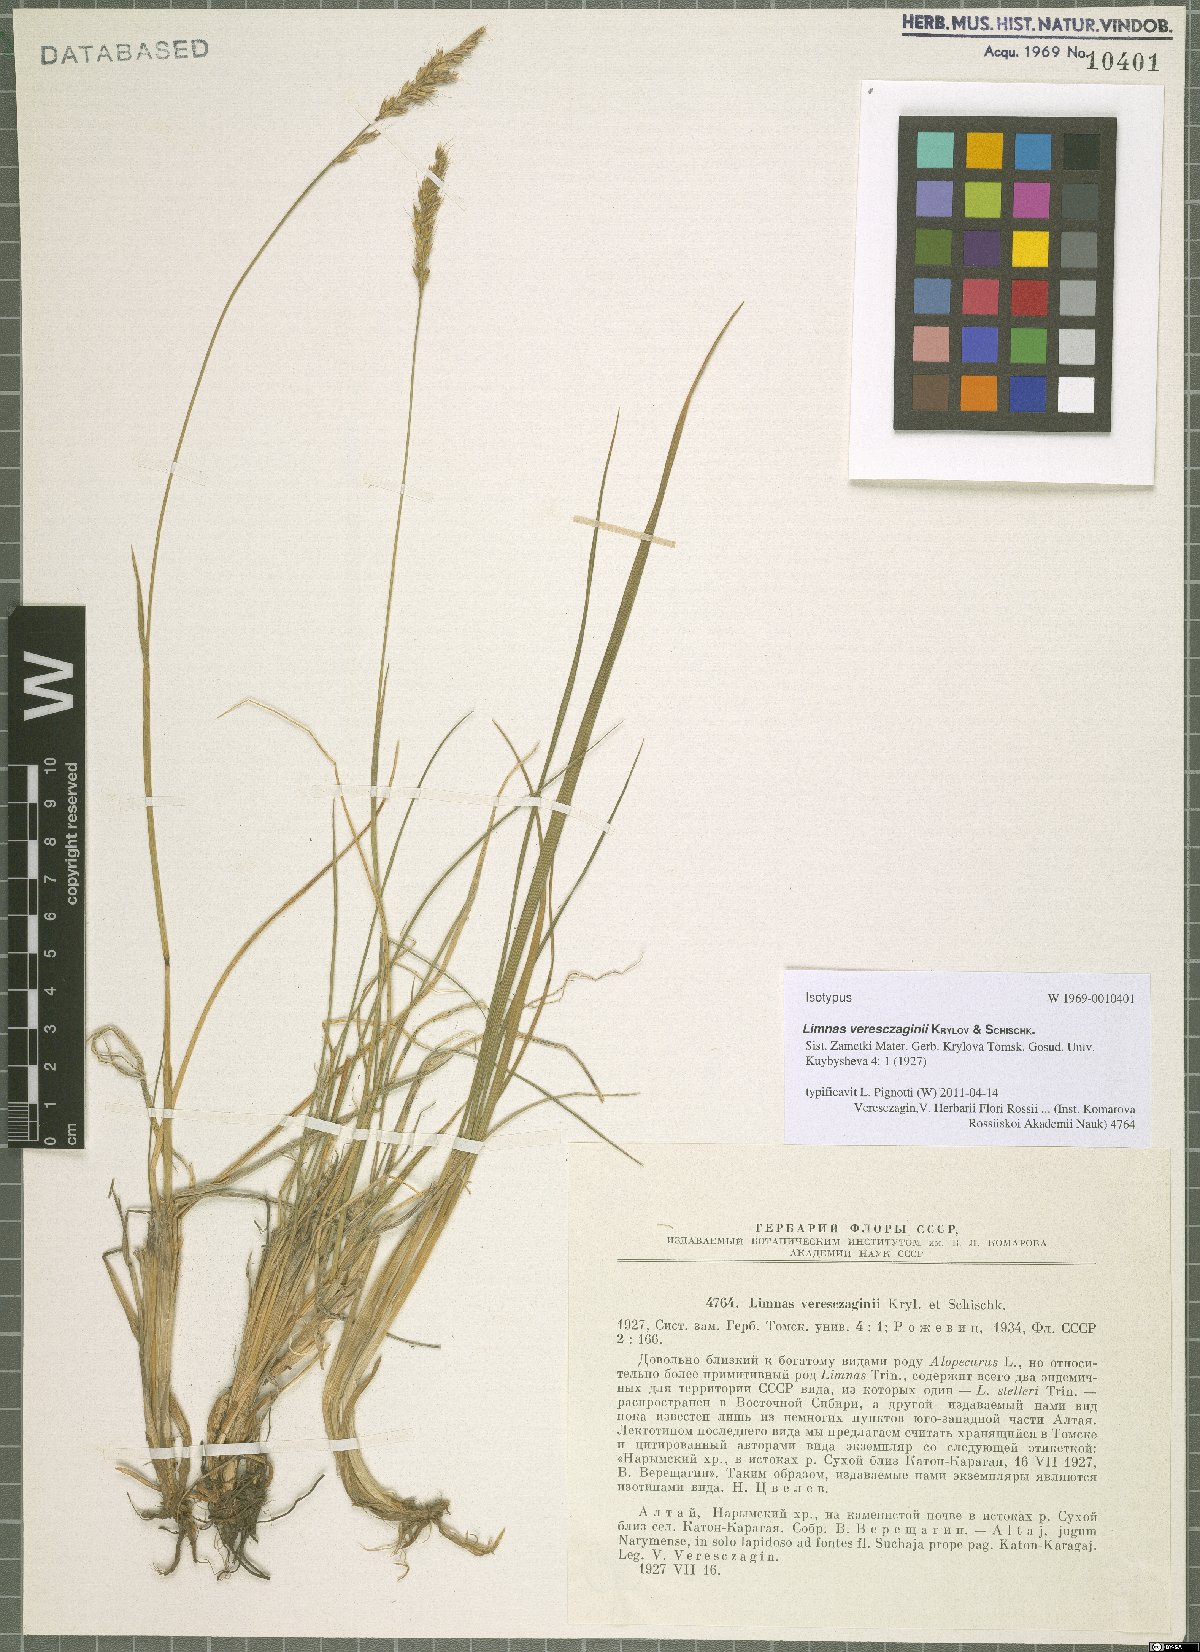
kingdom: Plantae
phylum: Tracheophyta
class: Liliopsida
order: Poales
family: Poaceae
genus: Limnas
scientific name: Limnas veresczaginii
